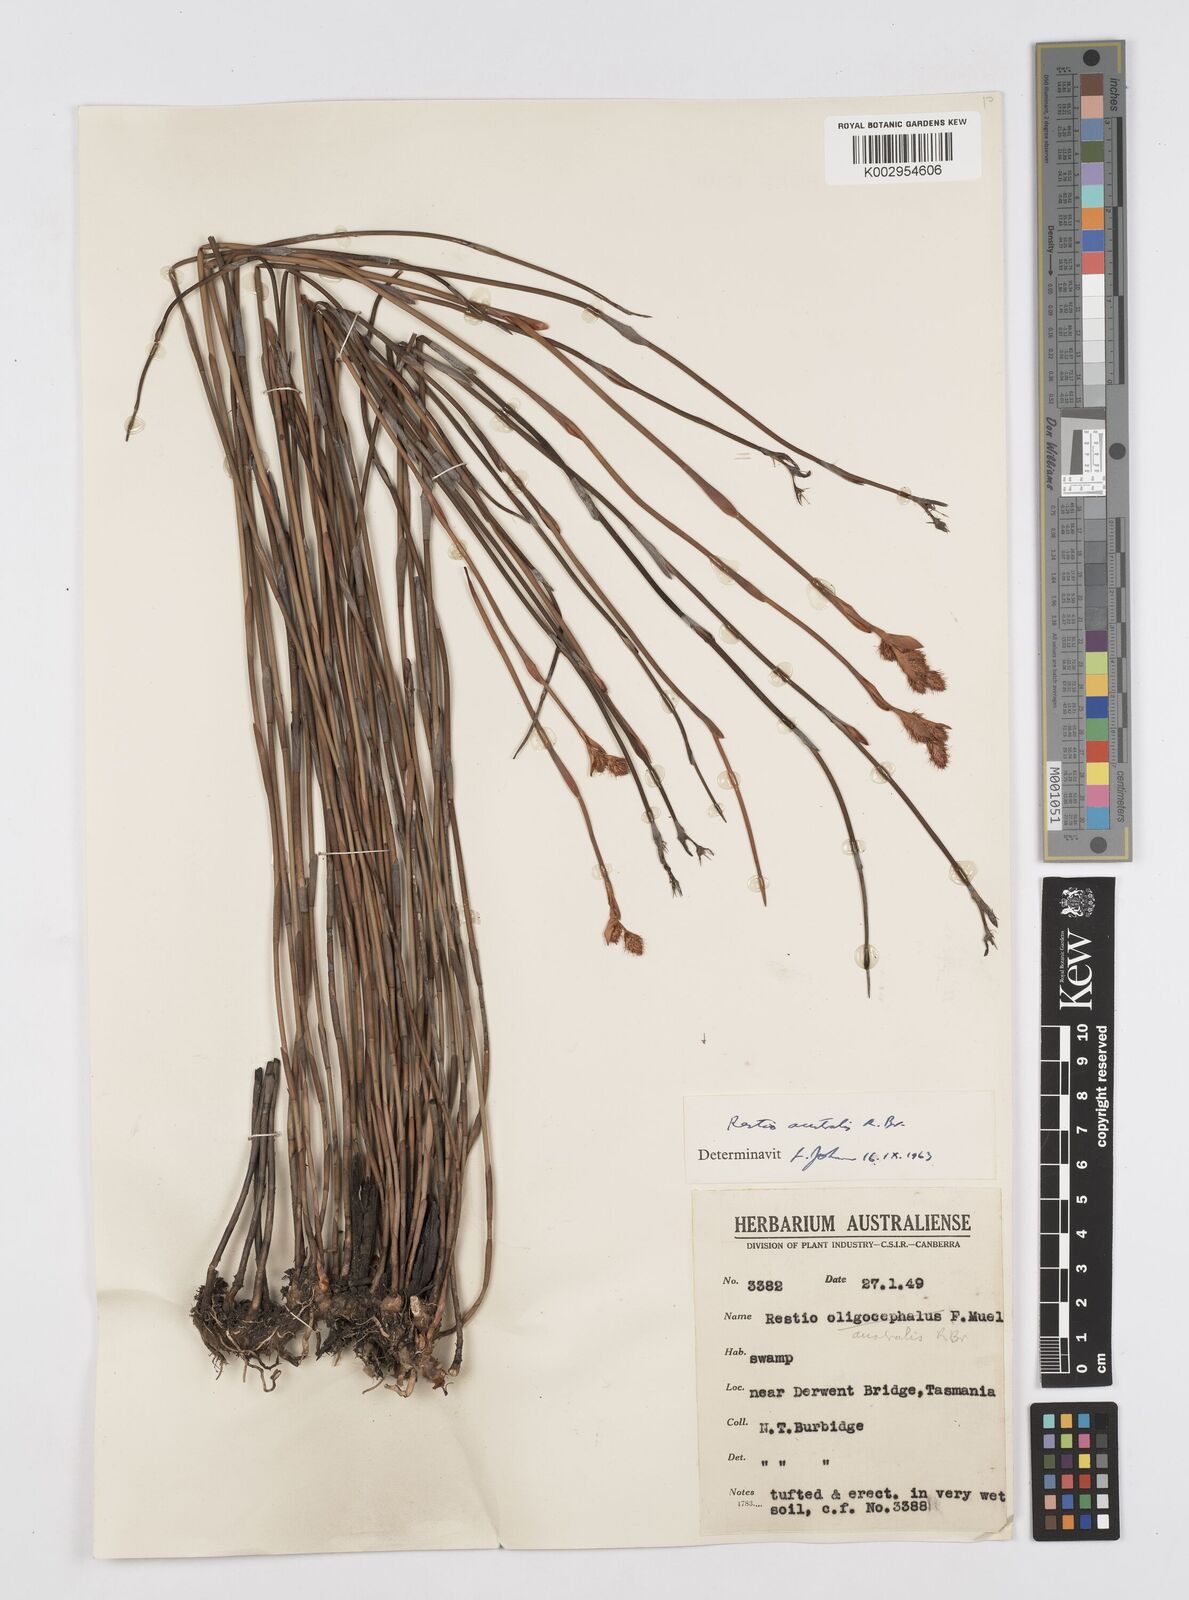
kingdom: Plantae
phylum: Tracheophyta
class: Liliopsida
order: Poales
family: Restionaceae
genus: Baloskion
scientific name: Baloskion australe
